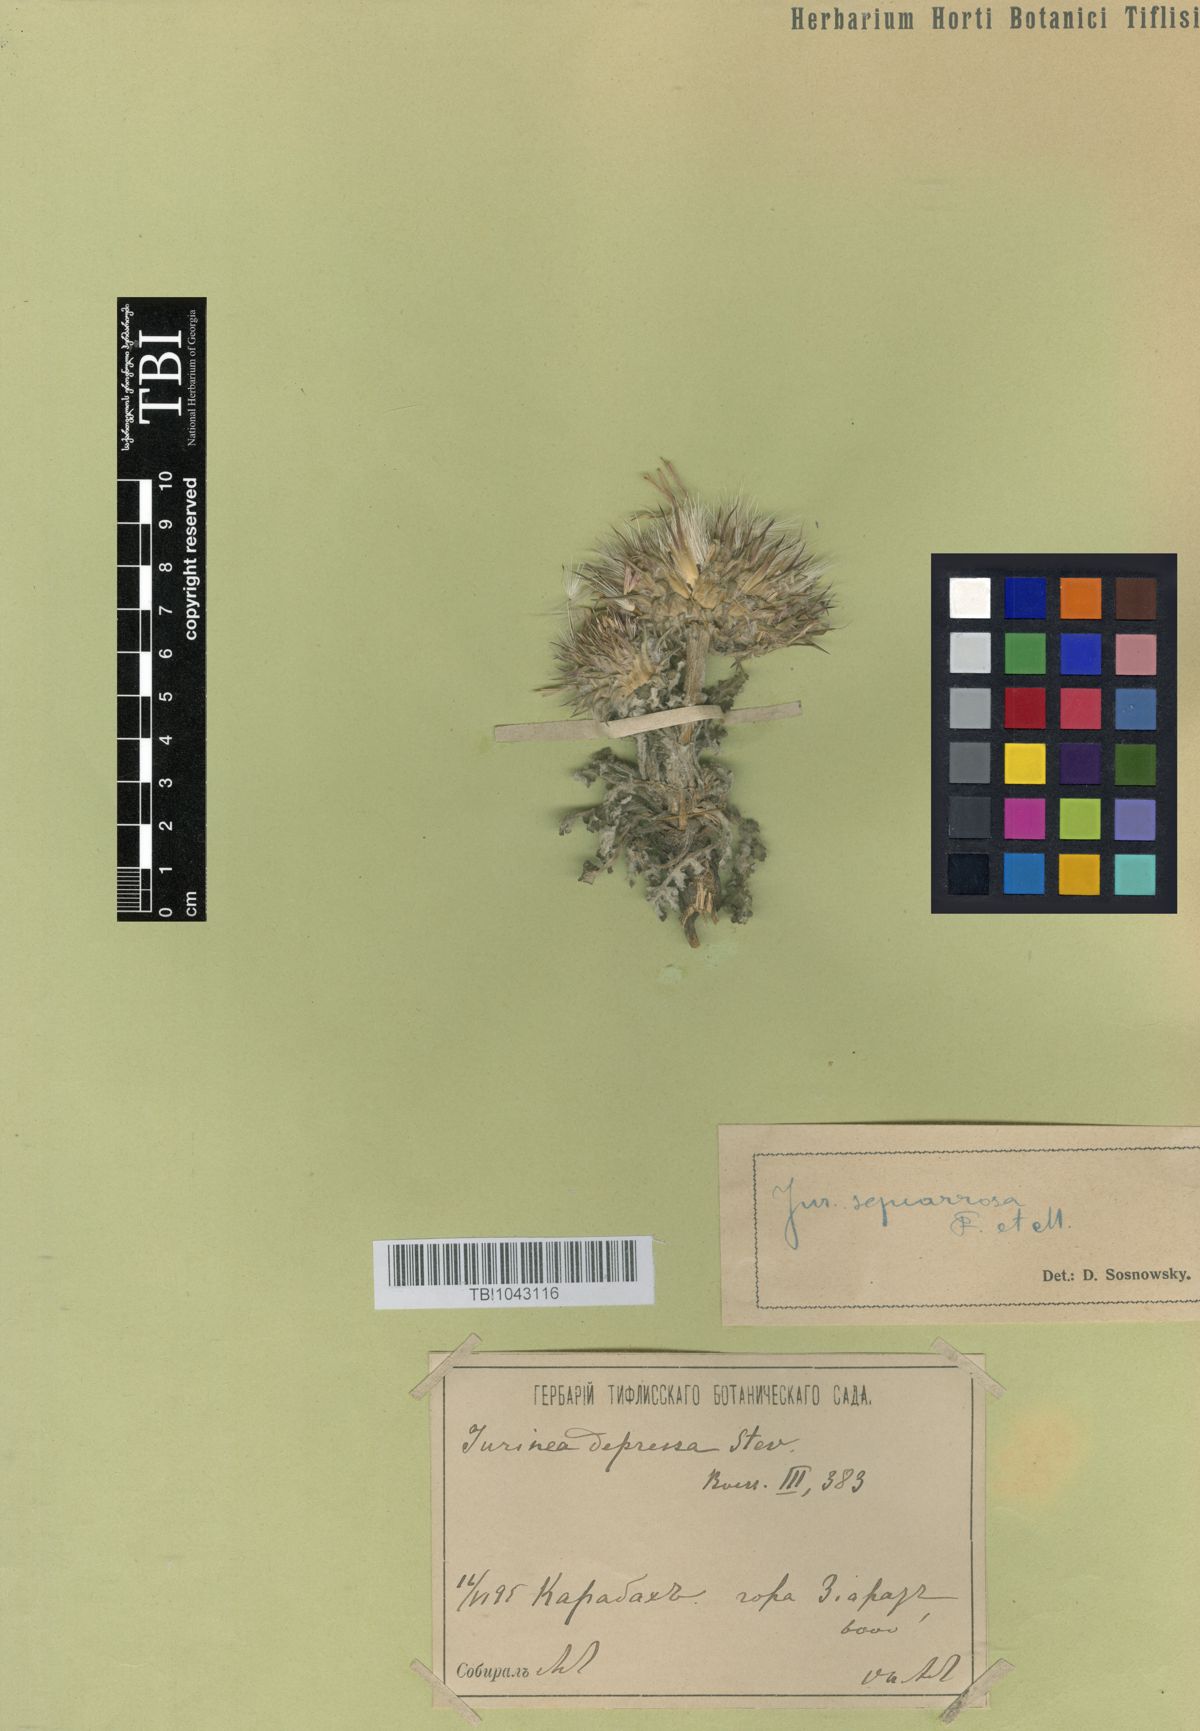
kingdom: Plantae
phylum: Tracheophyta
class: Magnoliopsida
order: Asterales
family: Asteraceae
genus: Jurinea
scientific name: Jurinea squarrosa
